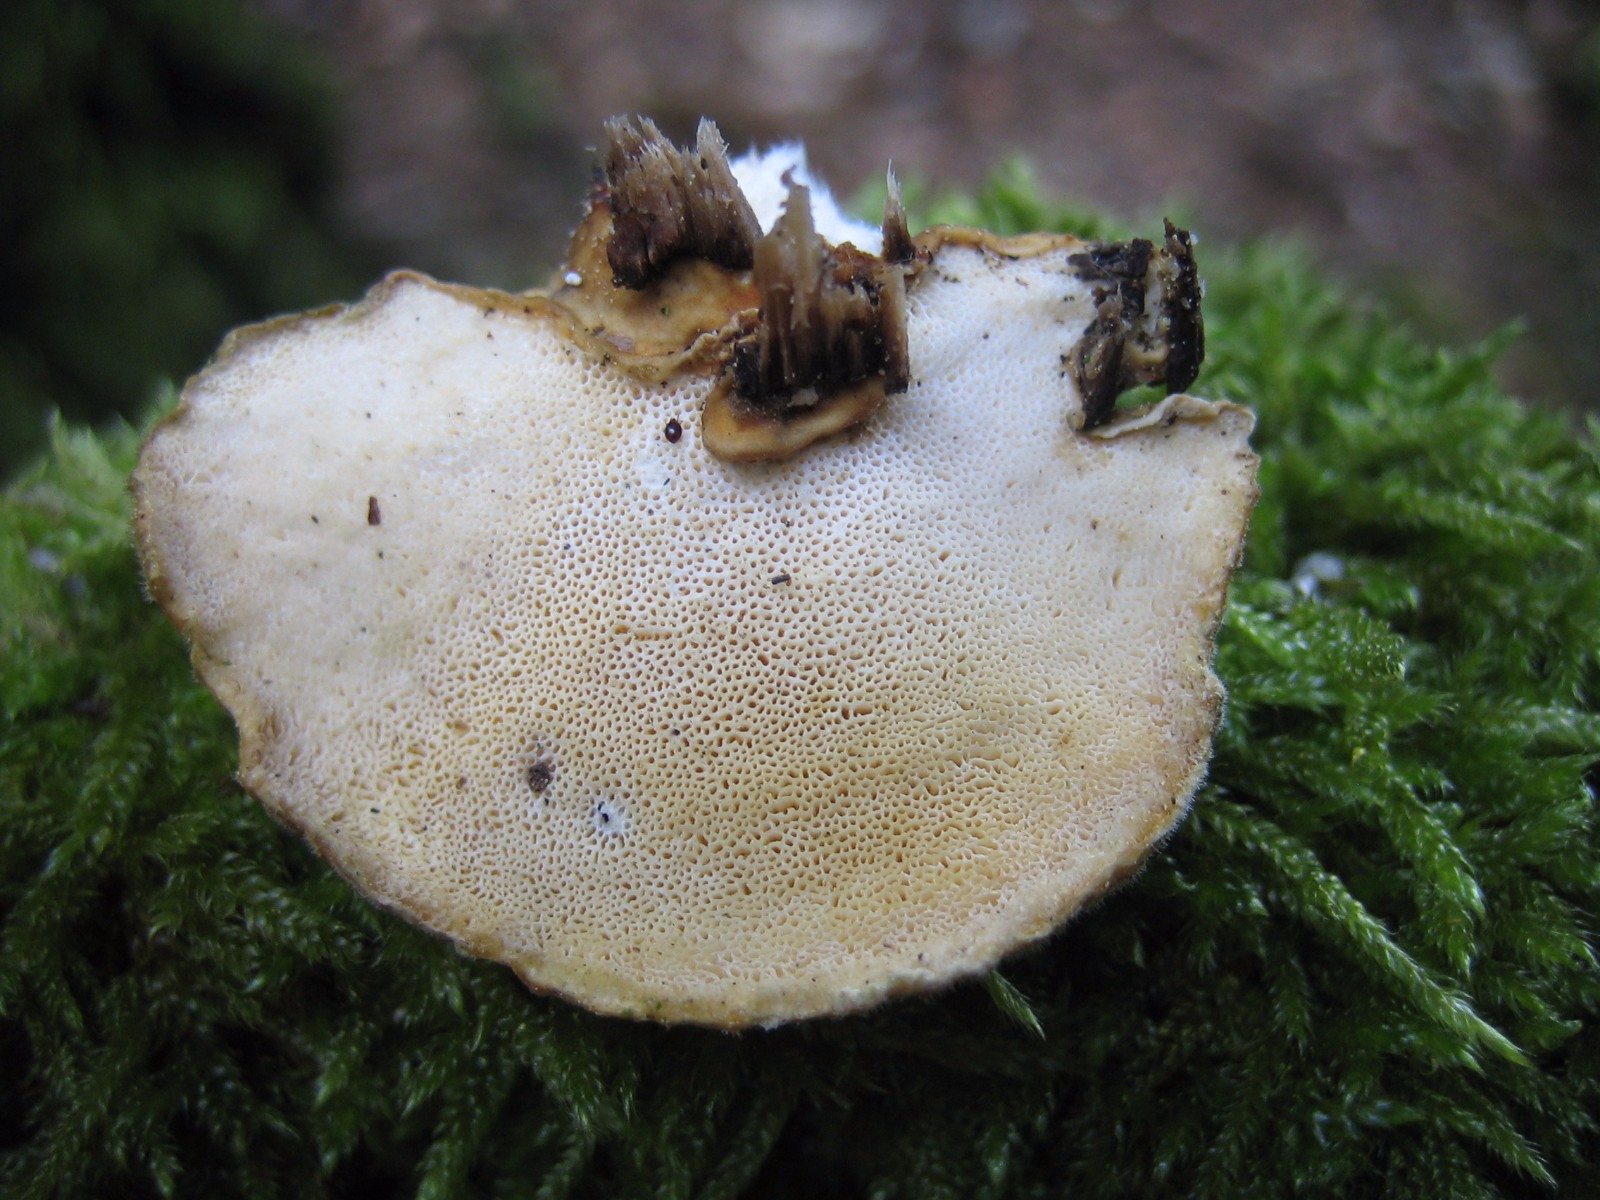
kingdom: Fungi
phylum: Basidiomycota
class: Agaricomycetes
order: Polyporales
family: Polyporaceae
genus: Trametes
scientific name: Trametes ochracea
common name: bæltet læderporesvamp
